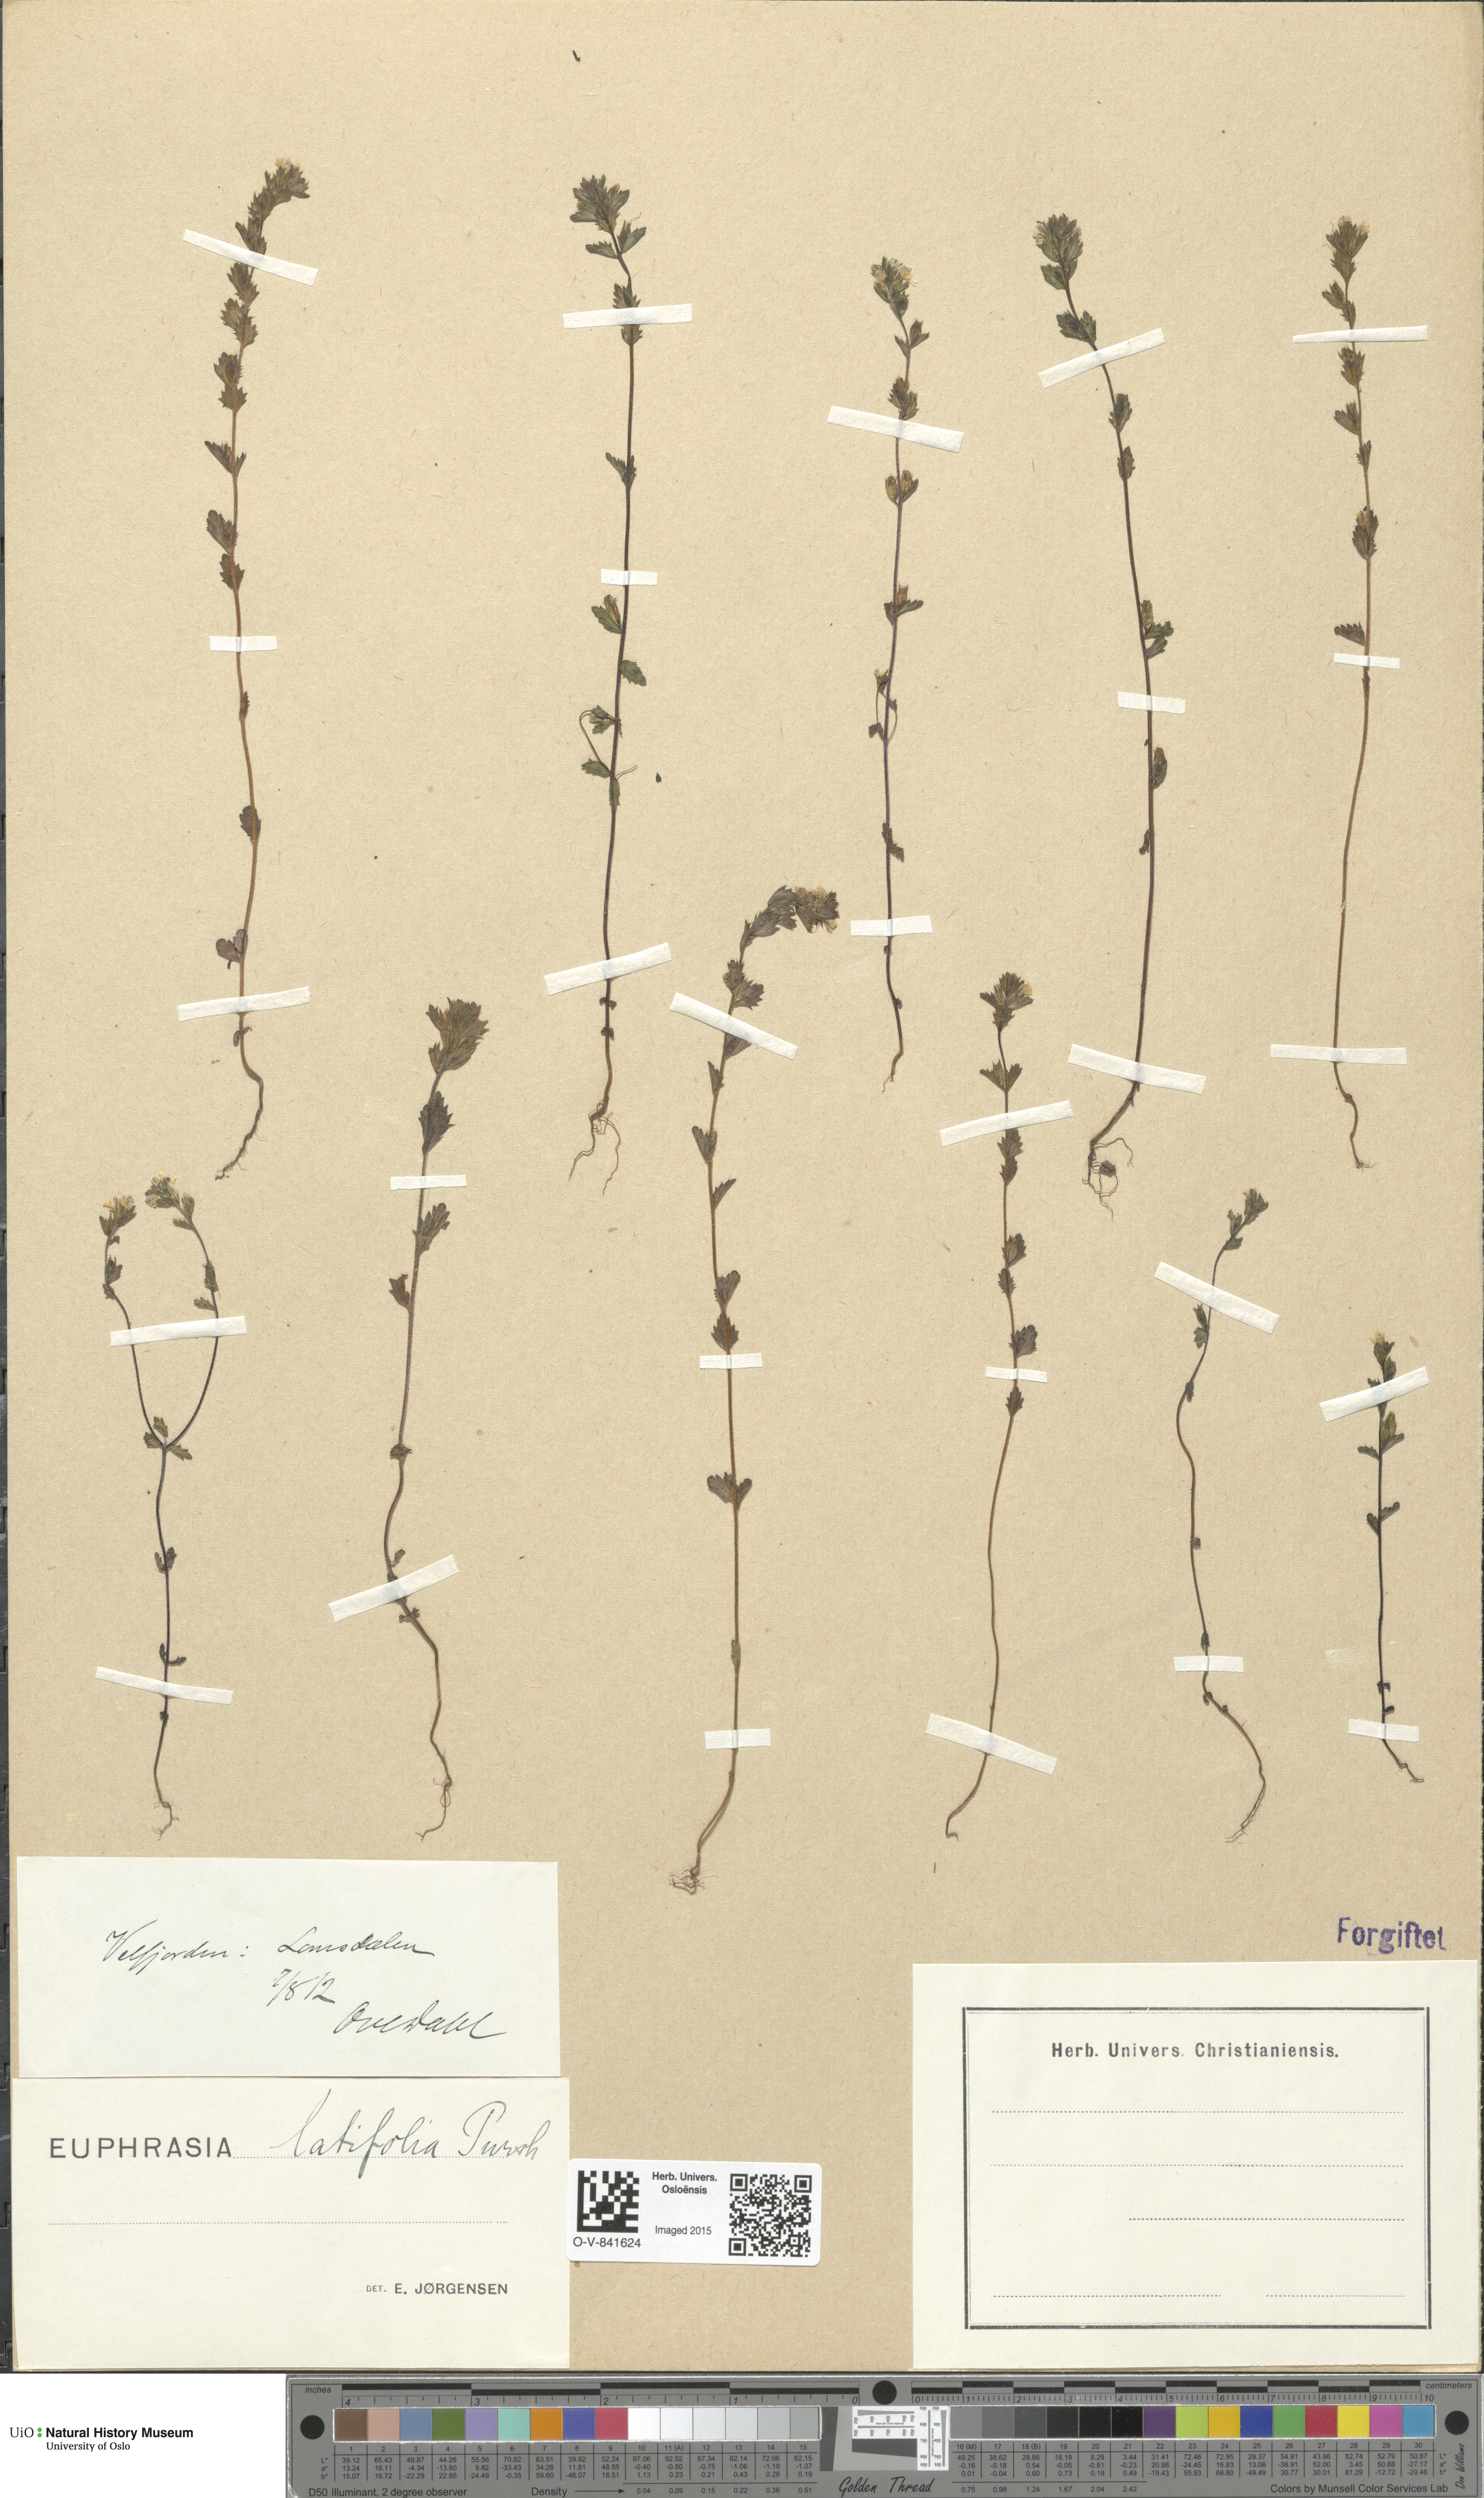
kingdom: Plantae
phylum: Tracheophyta
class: Magnoliopsida
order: Lamiales
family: Orobanchaceae
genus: Euphrasia
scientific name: Euphrasia wettsteinii
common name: Wettstein's eyebright
